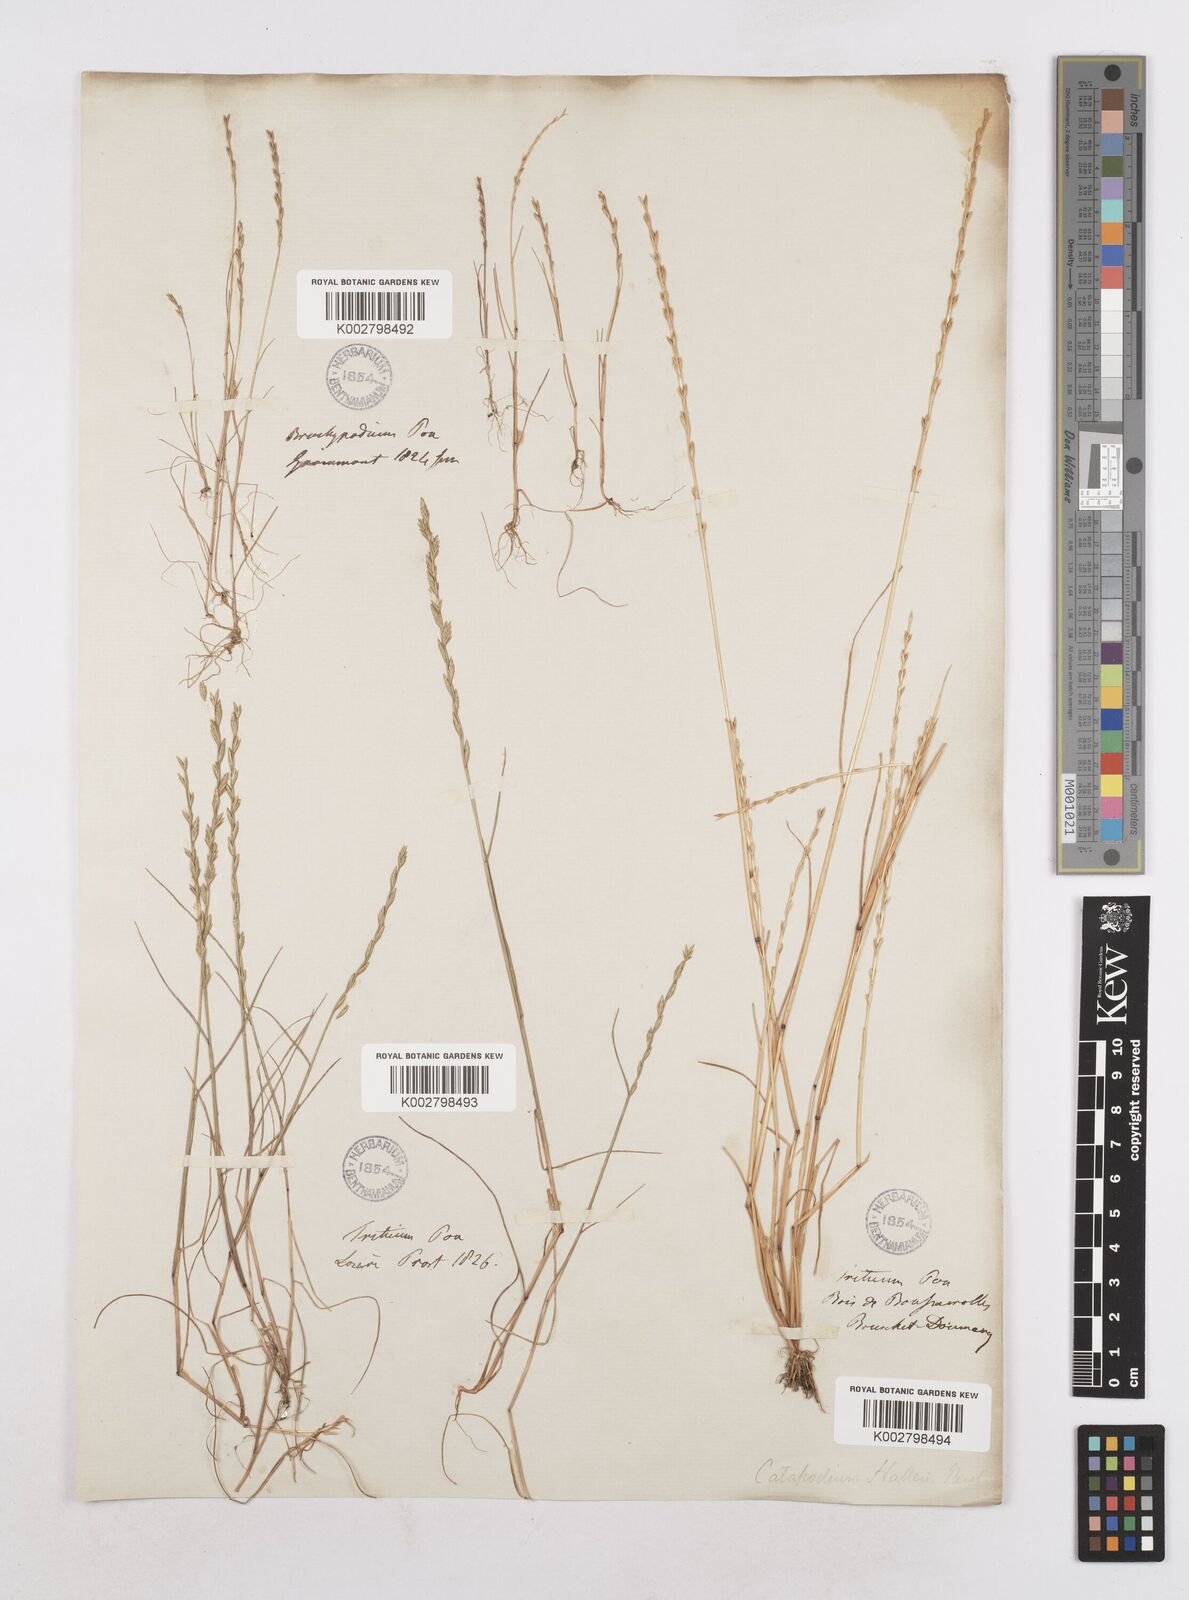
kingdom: Plantae
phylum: Tracheophyta
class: Liliopsida
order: Poales
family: Poaceae
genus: Festuca
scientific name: Festuca lachenalii
